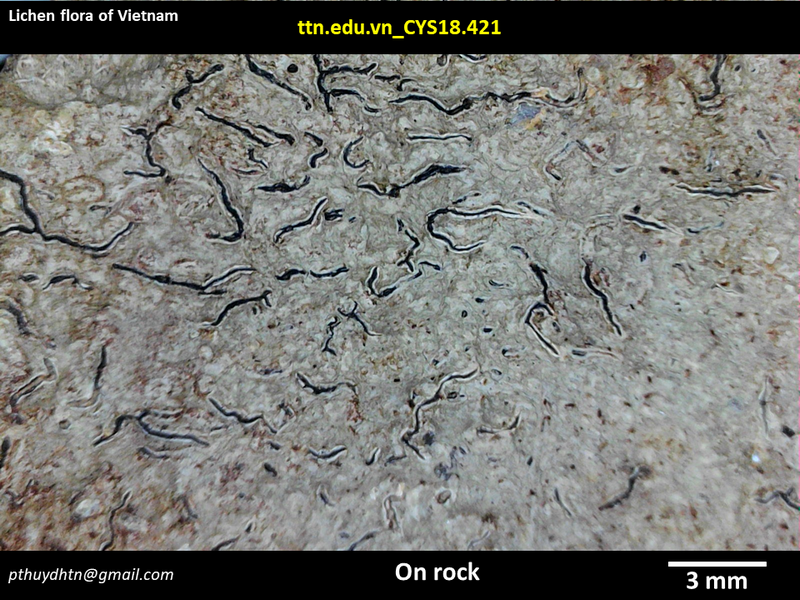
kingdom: Fungi
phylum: Ascomycota
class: Lecanoromycetes
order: Ostropales
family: Graphidaceae
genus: Graphis
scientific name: Graphis
